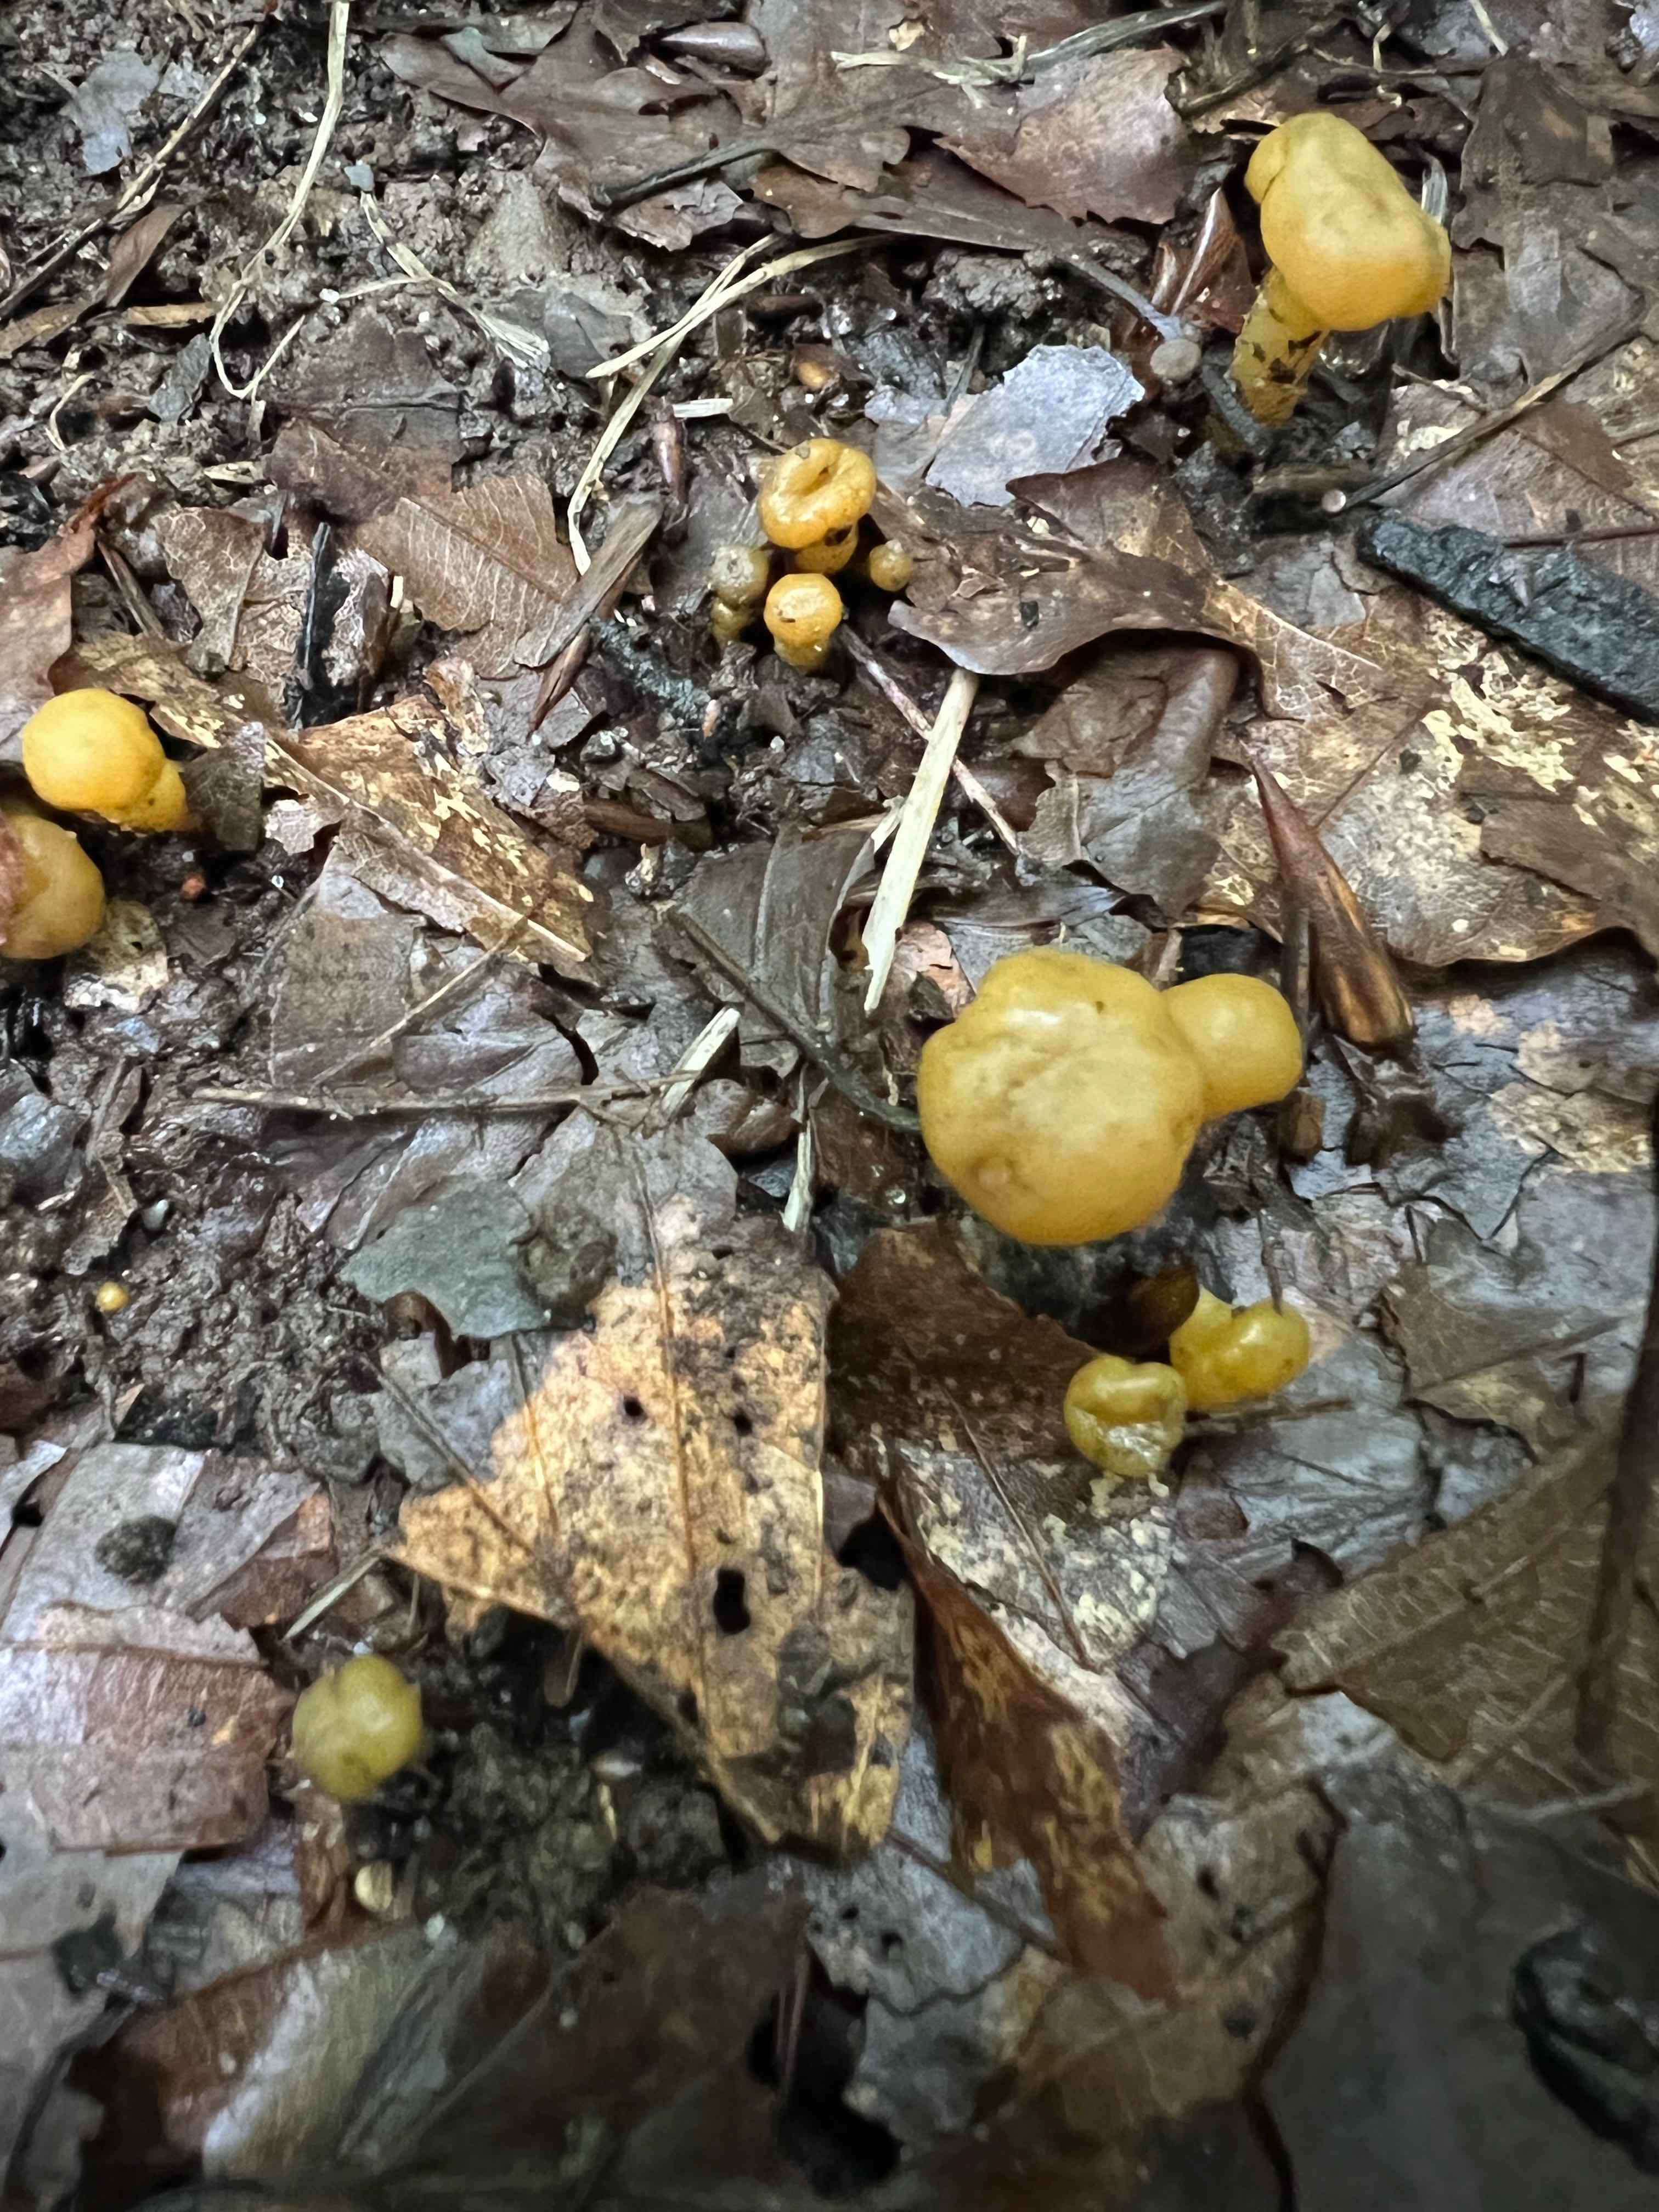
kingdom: Fungi
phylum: Ascomycota
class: Leotiomycetes
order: Leotiales
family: Leotiaceae
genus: Leotia
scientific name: Leotia lubrica
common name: ravsvamp
